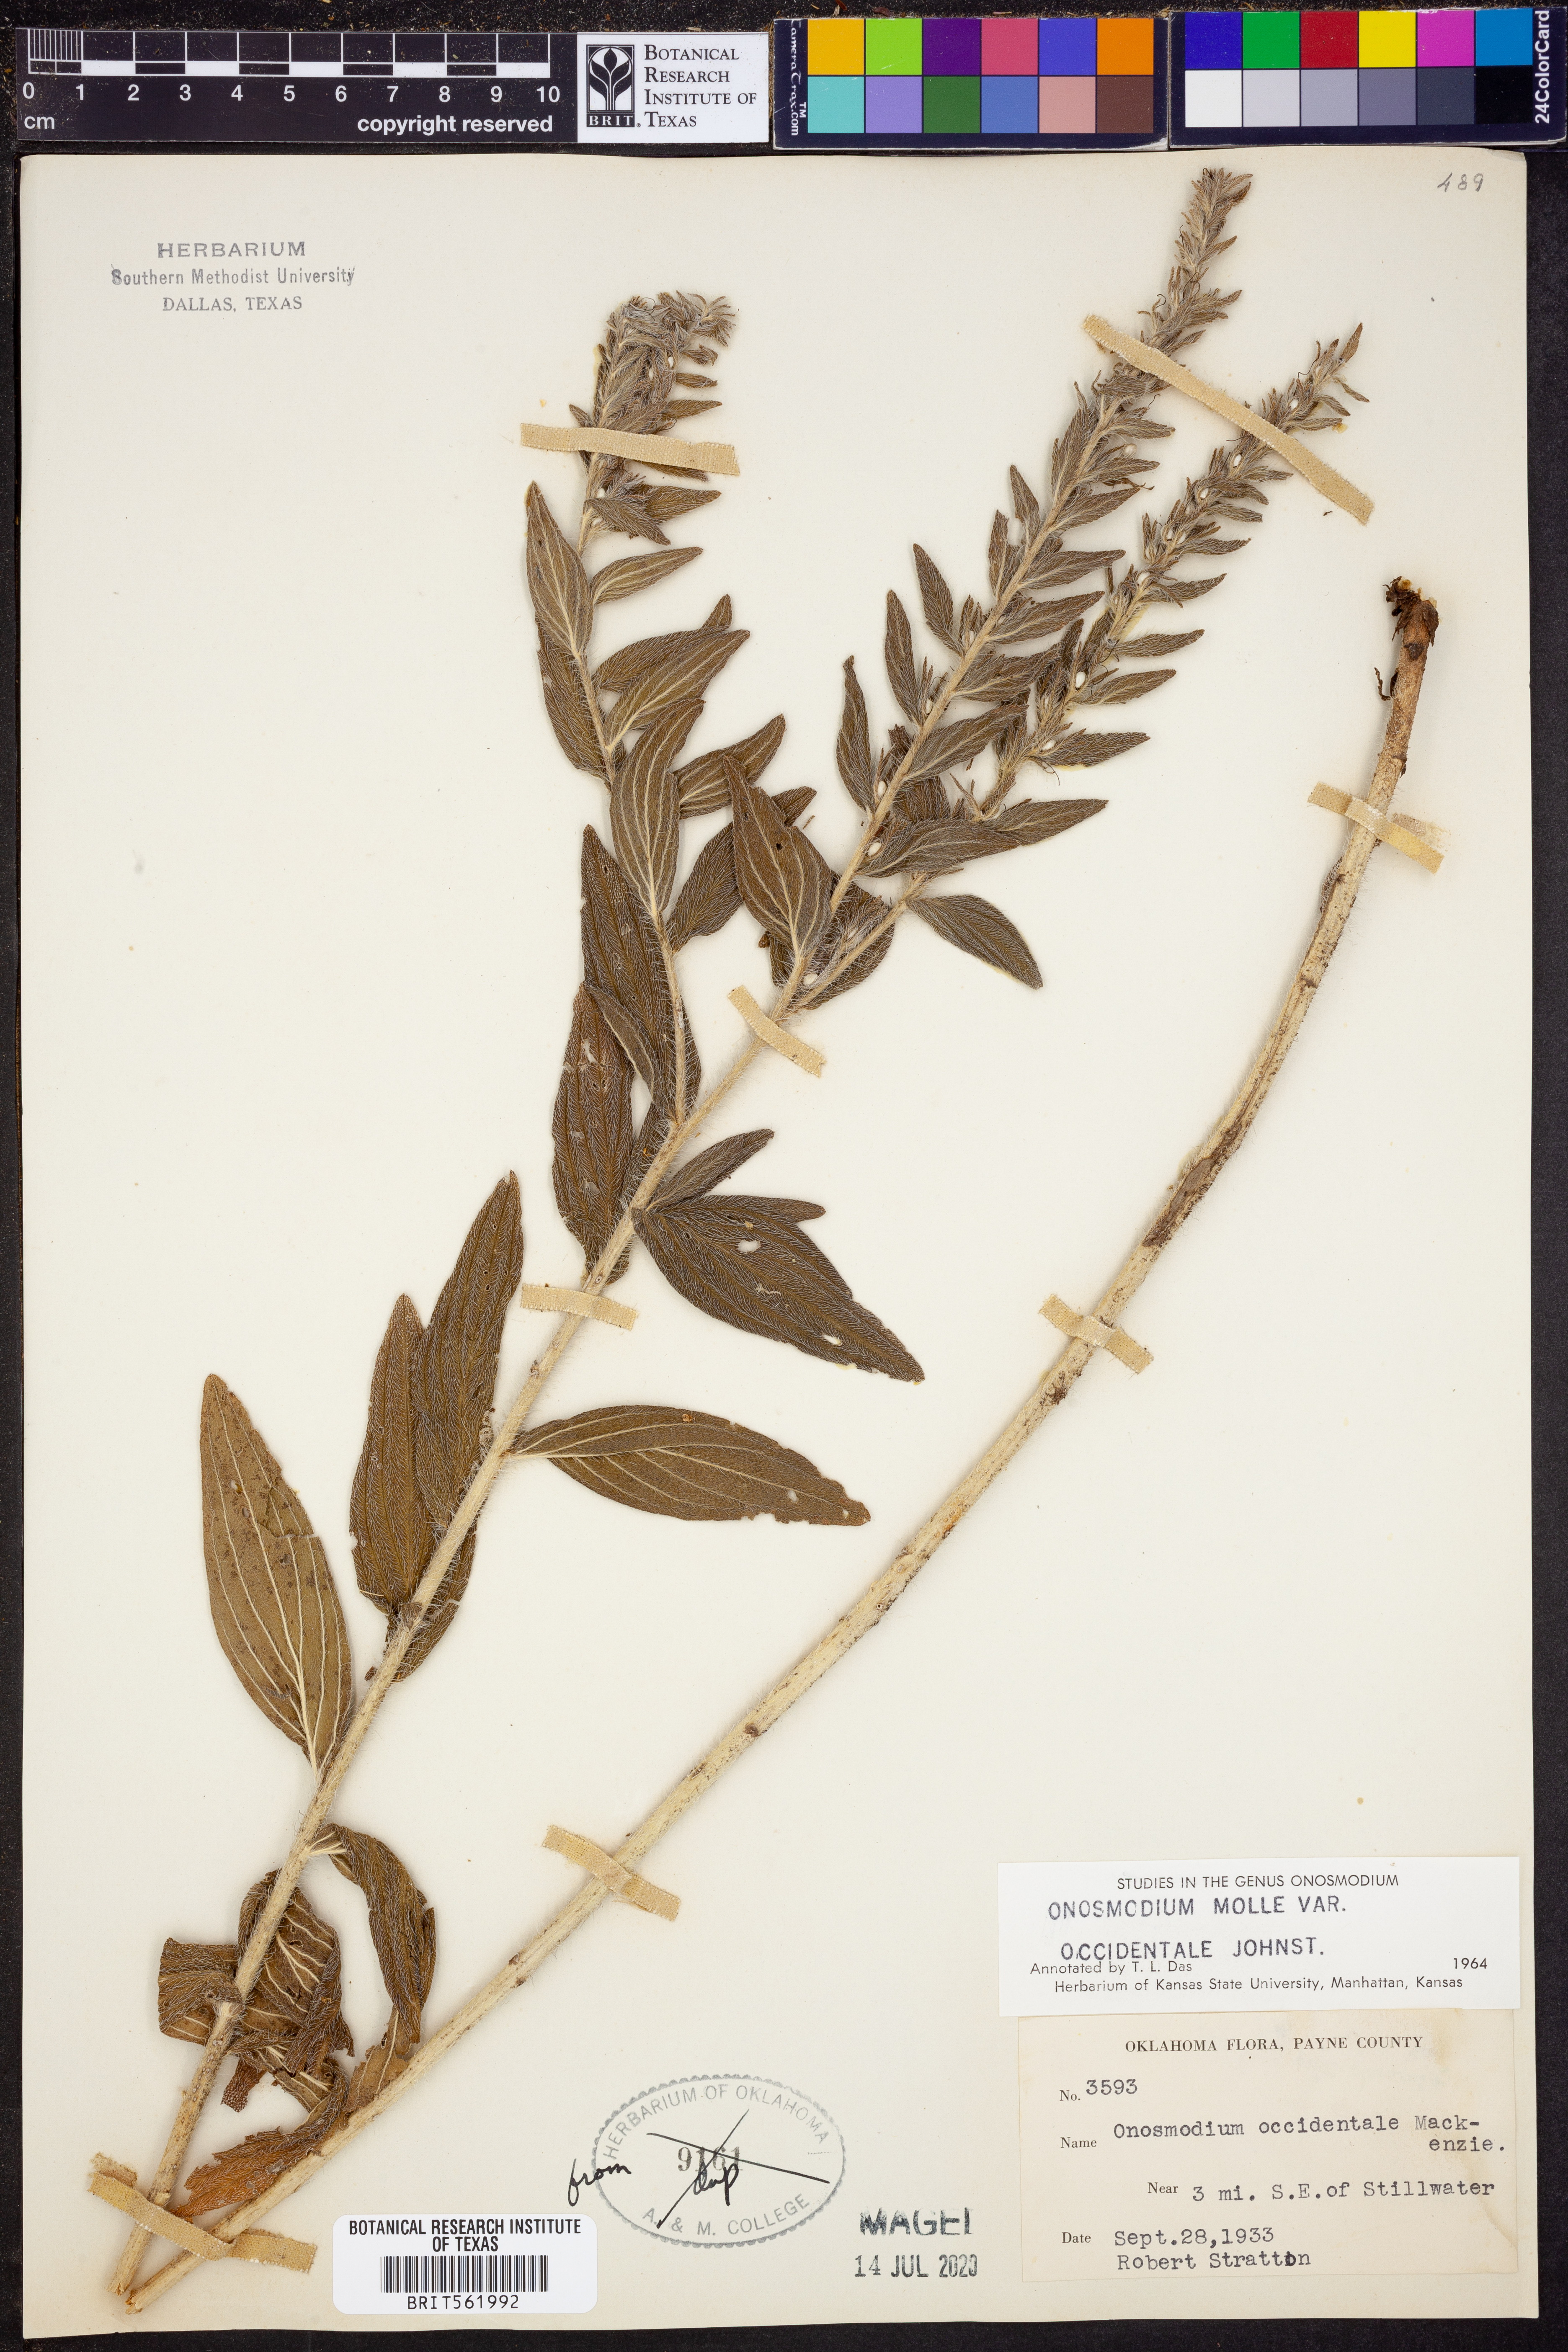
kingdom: Plantae
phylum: Tracheophyta
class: Magnoliopsida
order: Boraginales
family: Boraginaceae
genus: Lithospermum
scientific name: Lithospermum occidentale
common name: Western false gromwell
